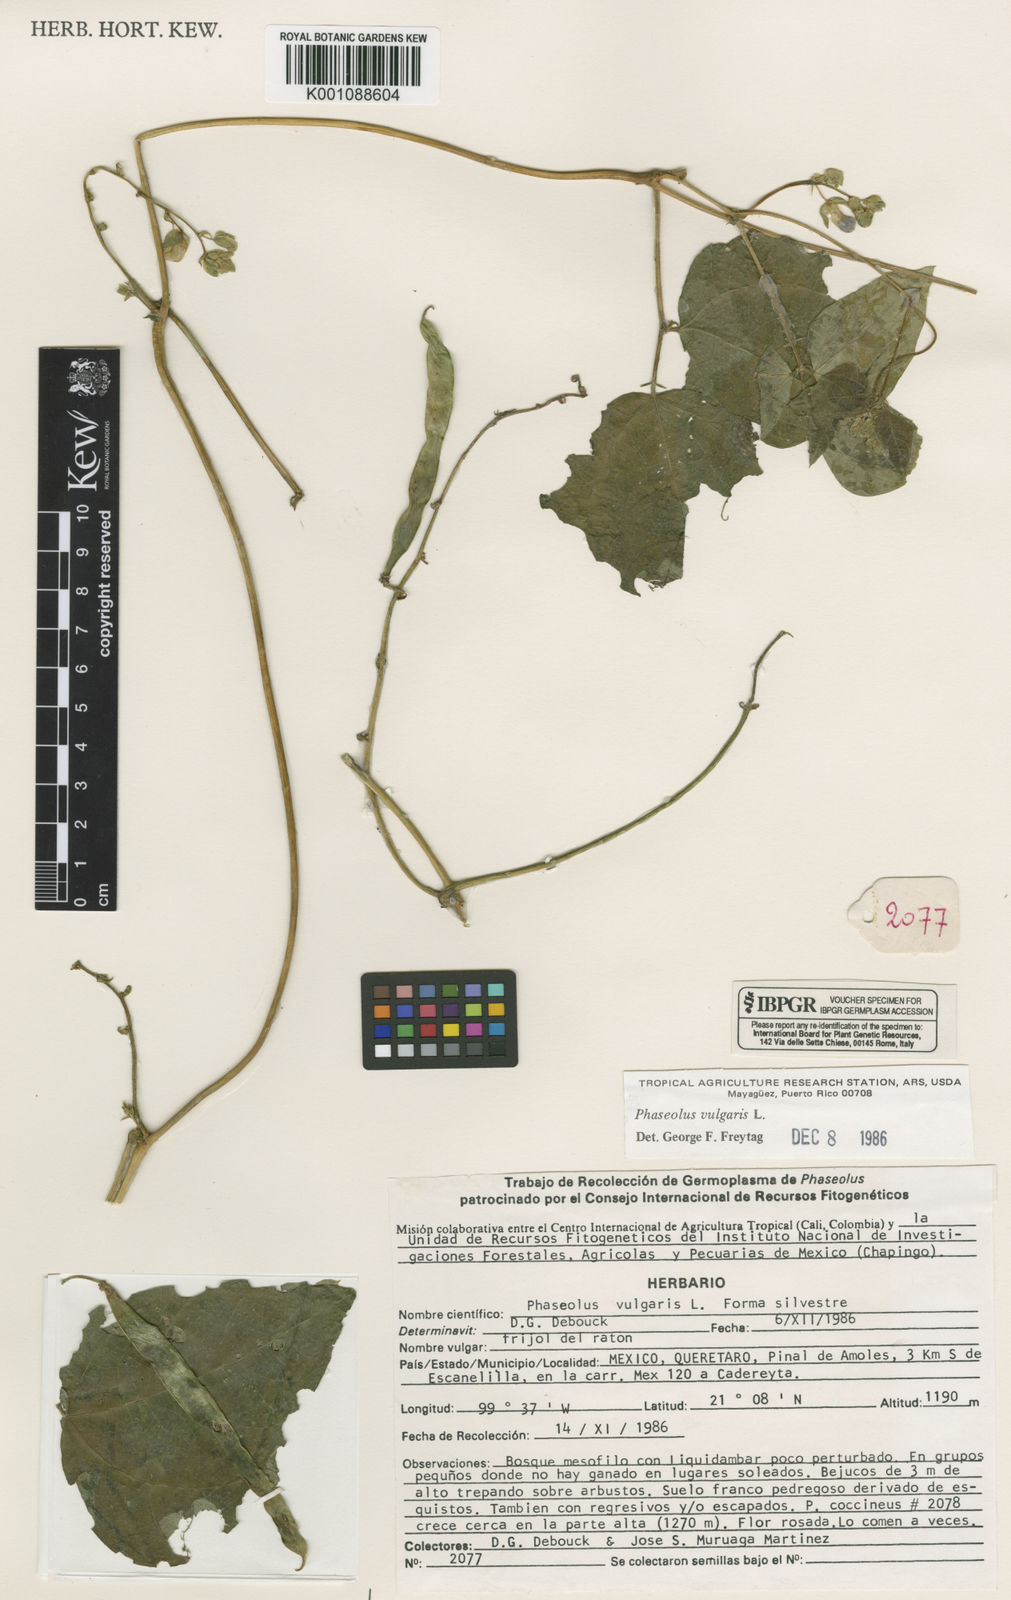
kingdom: Plantae
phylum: Tracheophyta
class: Magnoliopsida
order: Fabales
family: Fabaceae
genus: Phaseolus
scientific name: Phaseolus vulgaris
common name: Bean
